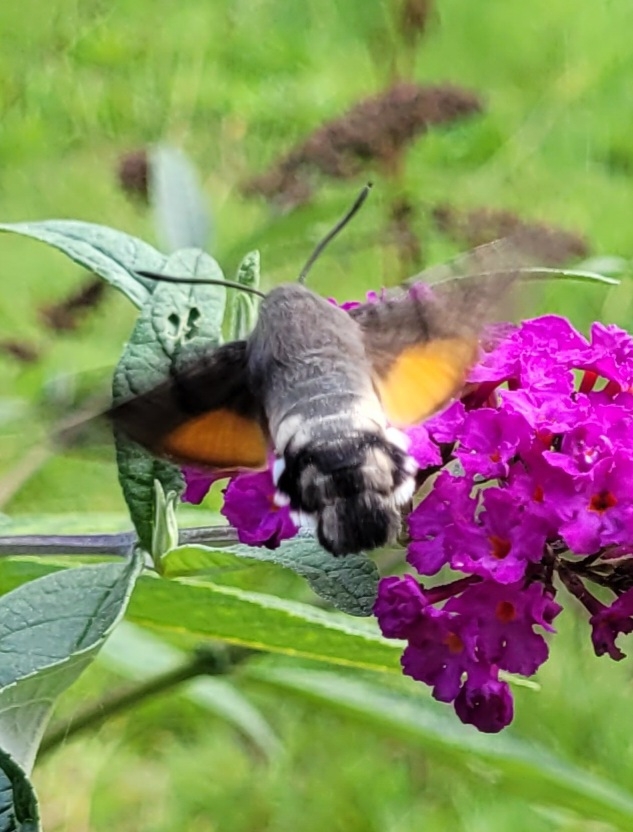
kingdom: Animalia
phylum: Arthropoda
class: Insecta
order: Lepidoptera
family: Sphingidae
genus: Macroglossum
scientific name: Macroglossum stellatarum
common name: Duehale
